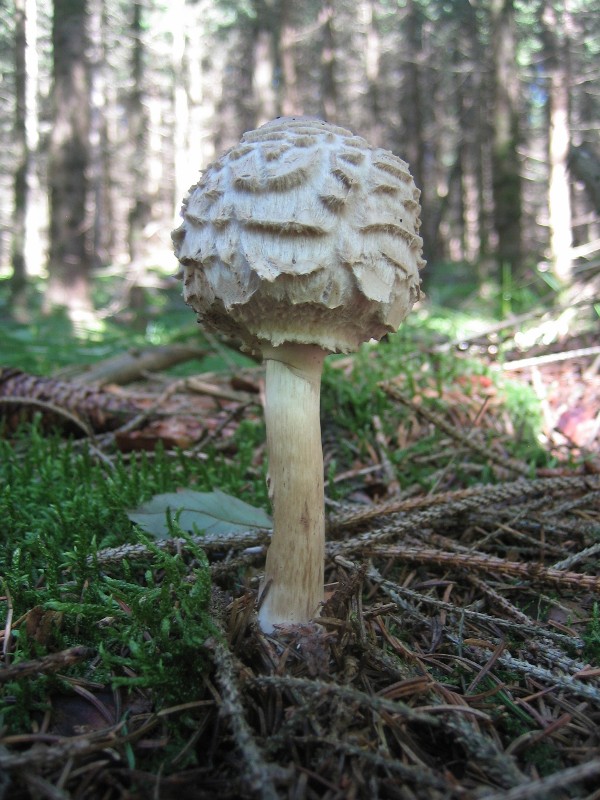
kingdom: Fungi
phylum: Basidiomycota
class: Agaricomycetes
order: Agaricales
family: Agaricaceae
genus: Chlorophyllum
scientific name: Chlorophyllum olivieri
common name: almindelig rabarberhat
